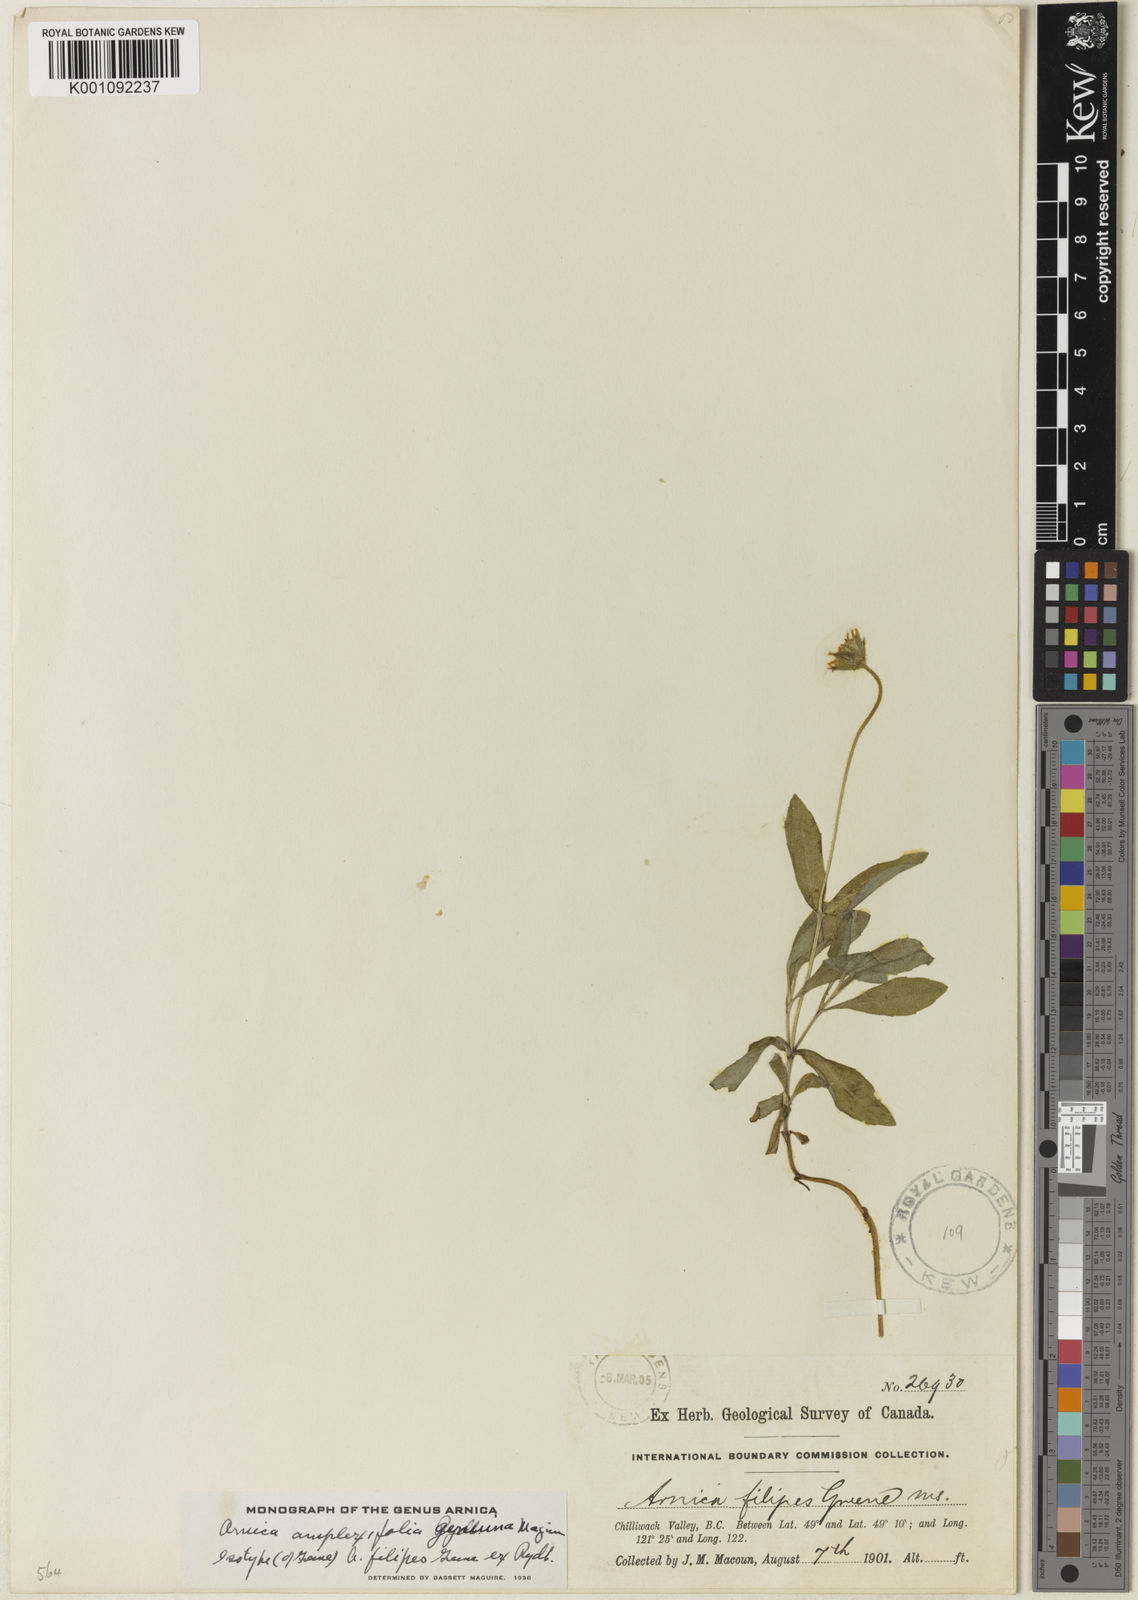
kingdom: Plantae
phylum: Tracheophyta
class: Magnoliopsida
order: Asterales
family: Asteraceae
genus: Arnica
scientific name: Arnica lanceolata
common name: Lance-leaved arnica
